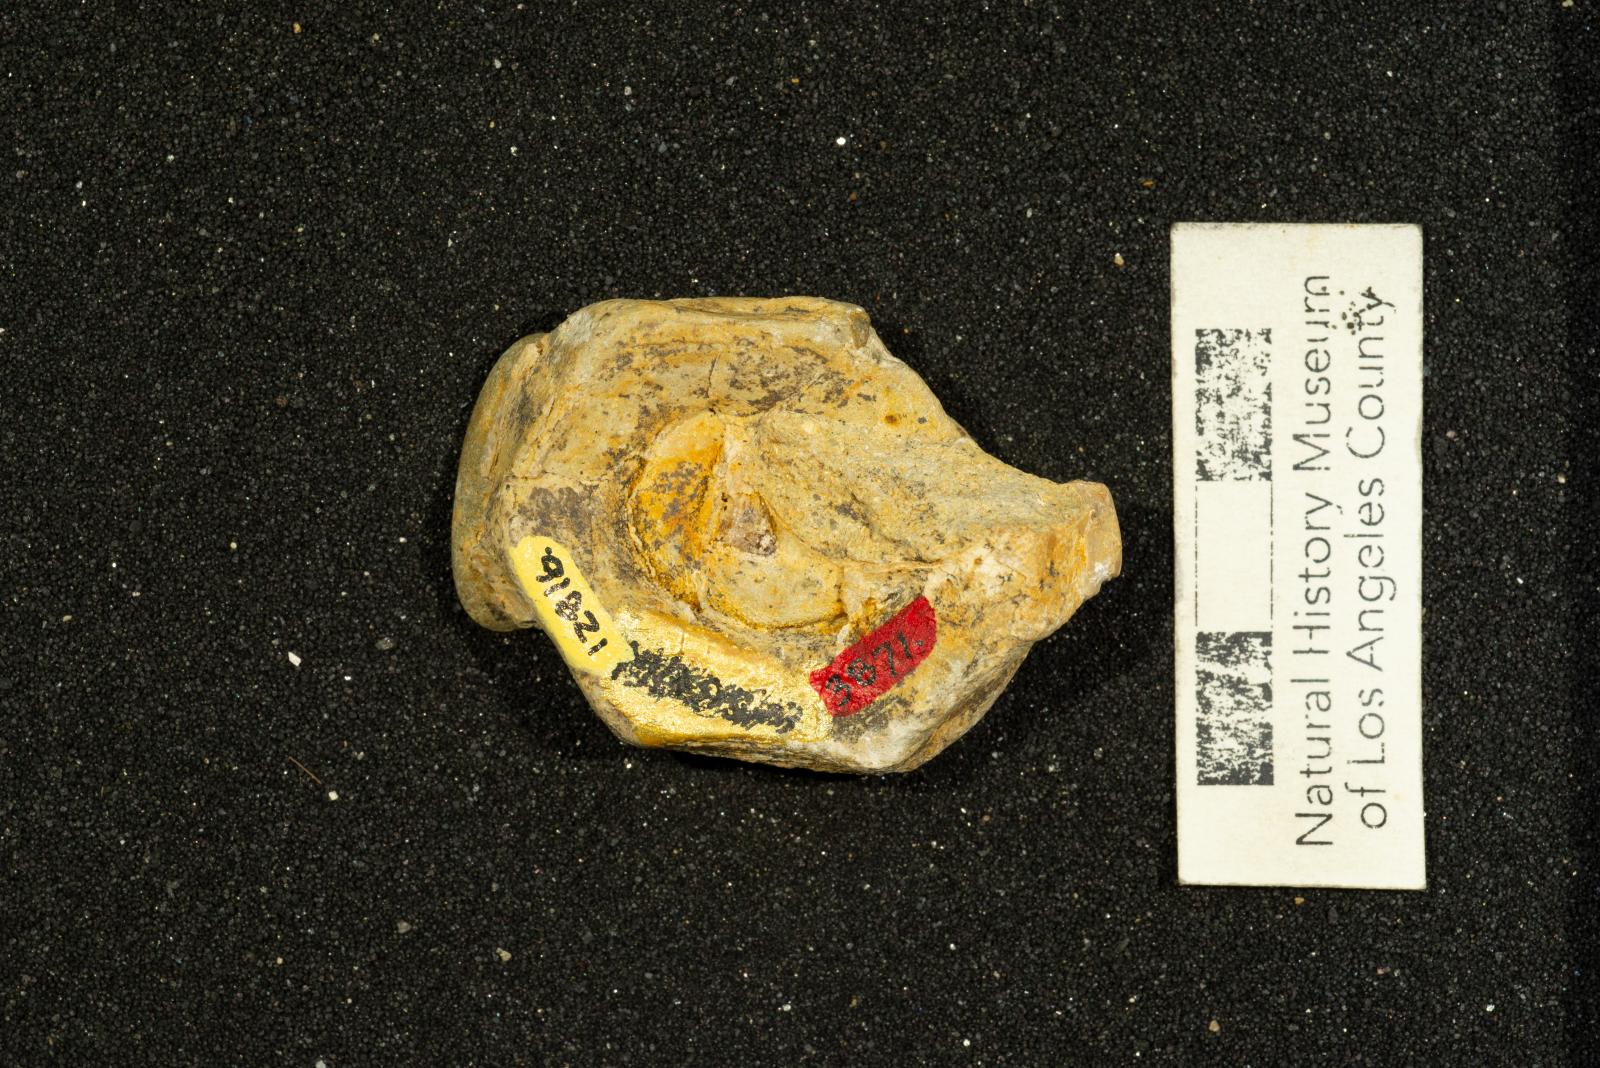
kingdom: Animalia
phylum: Mollusca
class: Gastropoda
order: Littorinimorpha
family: Xenophoridae
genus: Xenophora
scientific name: Xenophora hermax
